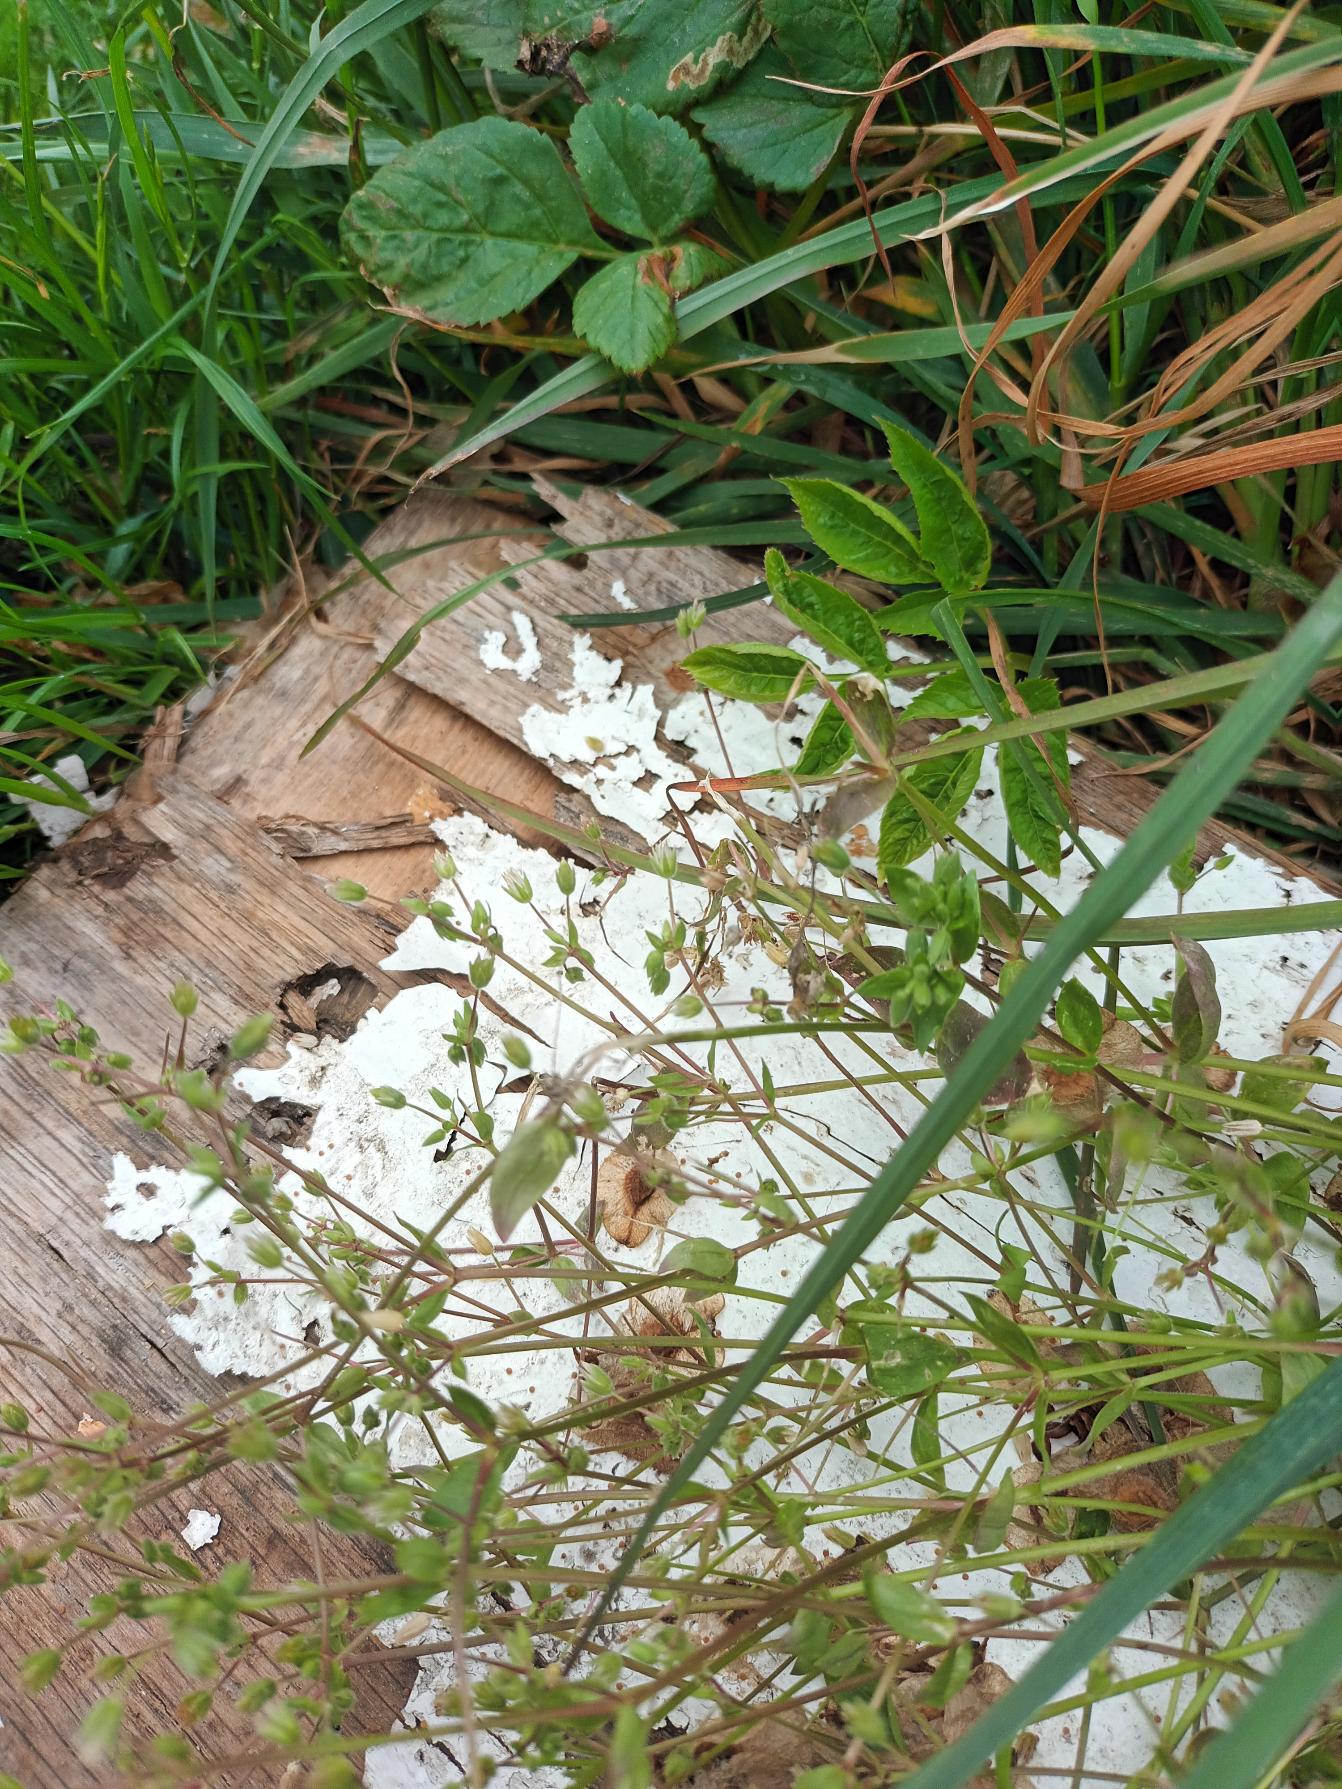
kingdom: Plantae
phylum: Tracheophyta
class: Magnoliopsida
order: Caryophyllales
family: Caryophyllaceae
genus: Stellaria
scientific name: Stellaria apetala
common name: Bleg fuglegræs
